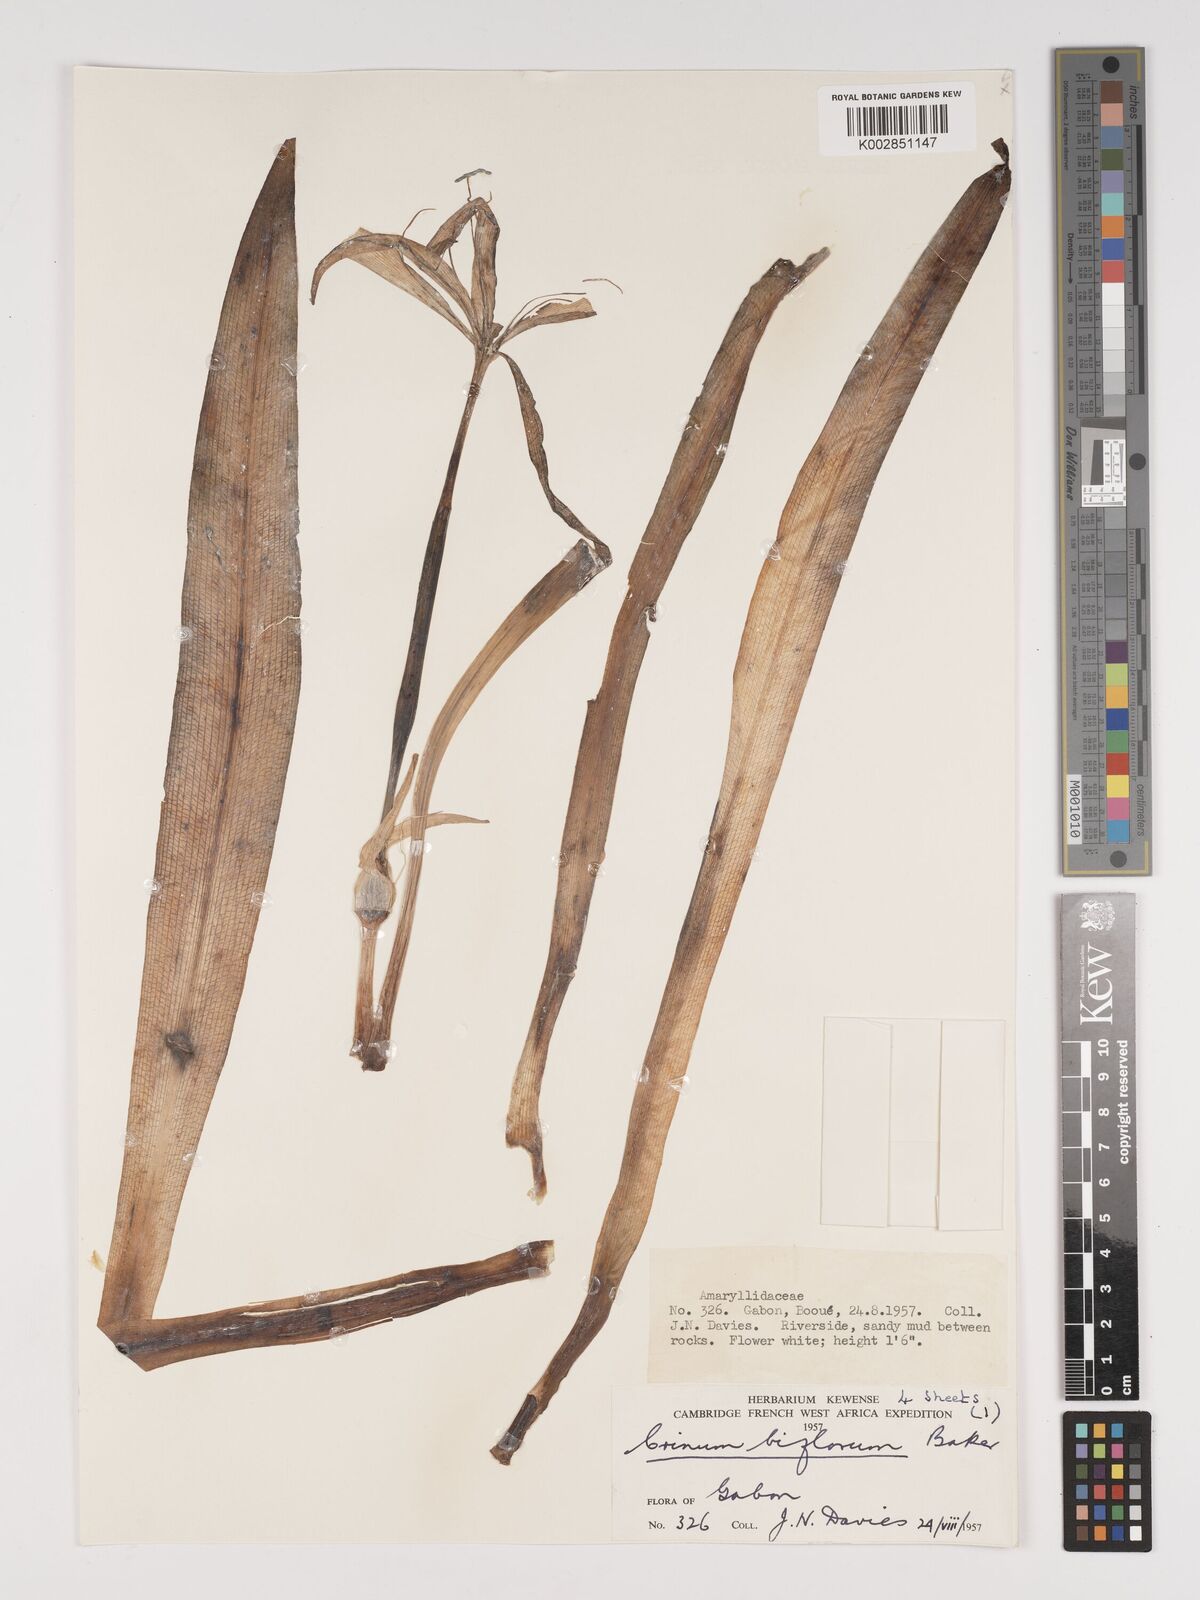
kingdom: Plantae
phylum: Tracheophyta
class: Liliopsida
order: Asparagales
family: Amaryllidaceae
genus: Crinum
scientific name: Crinum nordaliae
